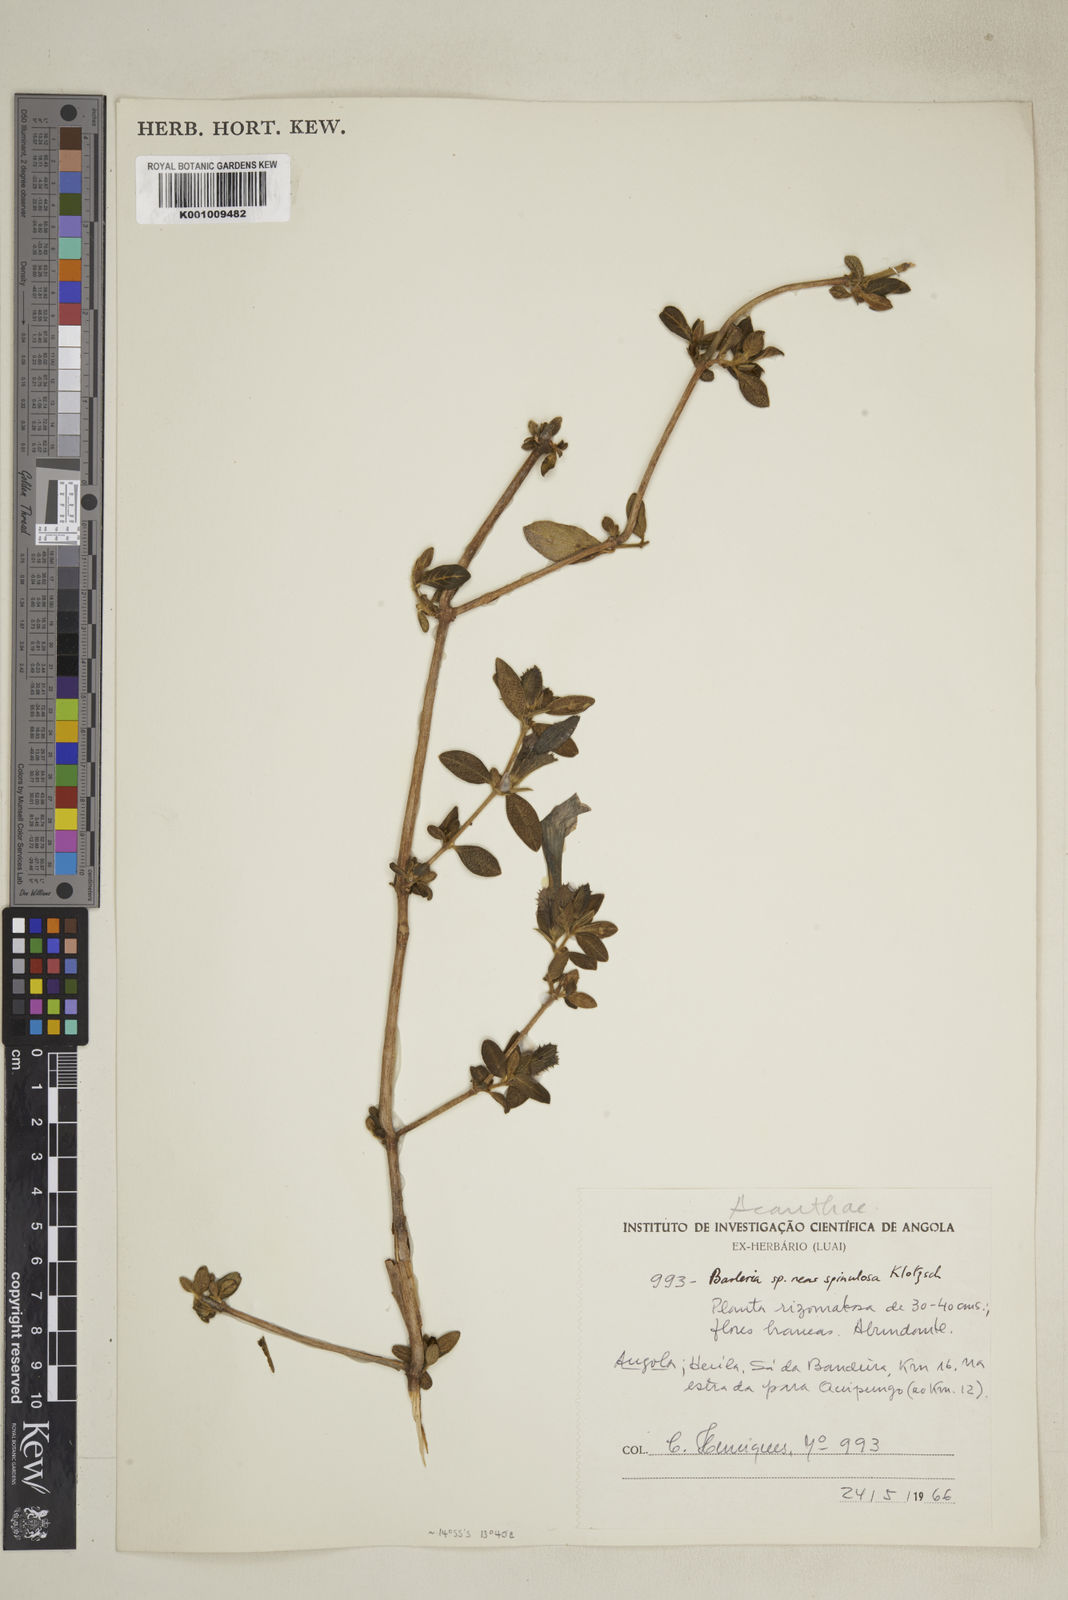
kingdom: Plantae
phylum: Tracheophyta
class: Magnoliopsida
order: Lamiales
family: Acanthaceae
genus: Barleria
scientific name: Barleria
